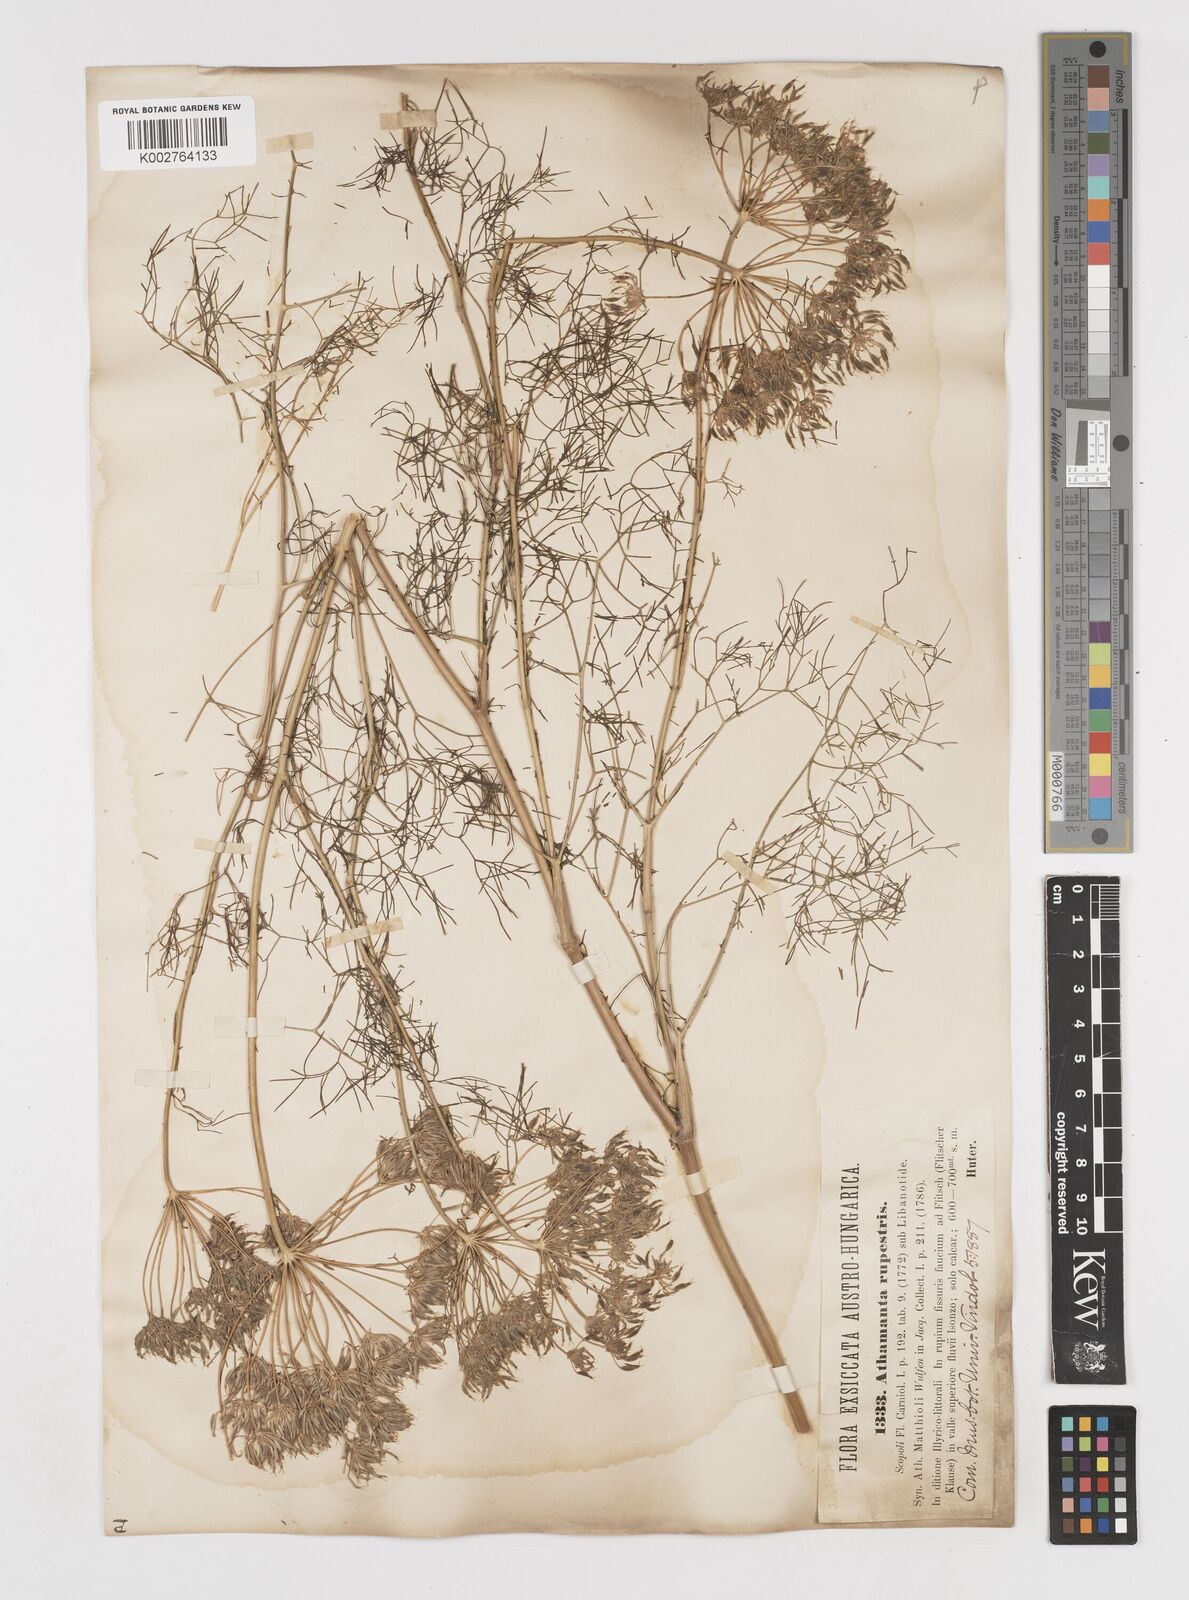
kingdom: Plantae
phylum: Tracheophyta
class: Magnoliopsida
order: Apiales
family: Apiaceae
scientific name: Apiaceae
